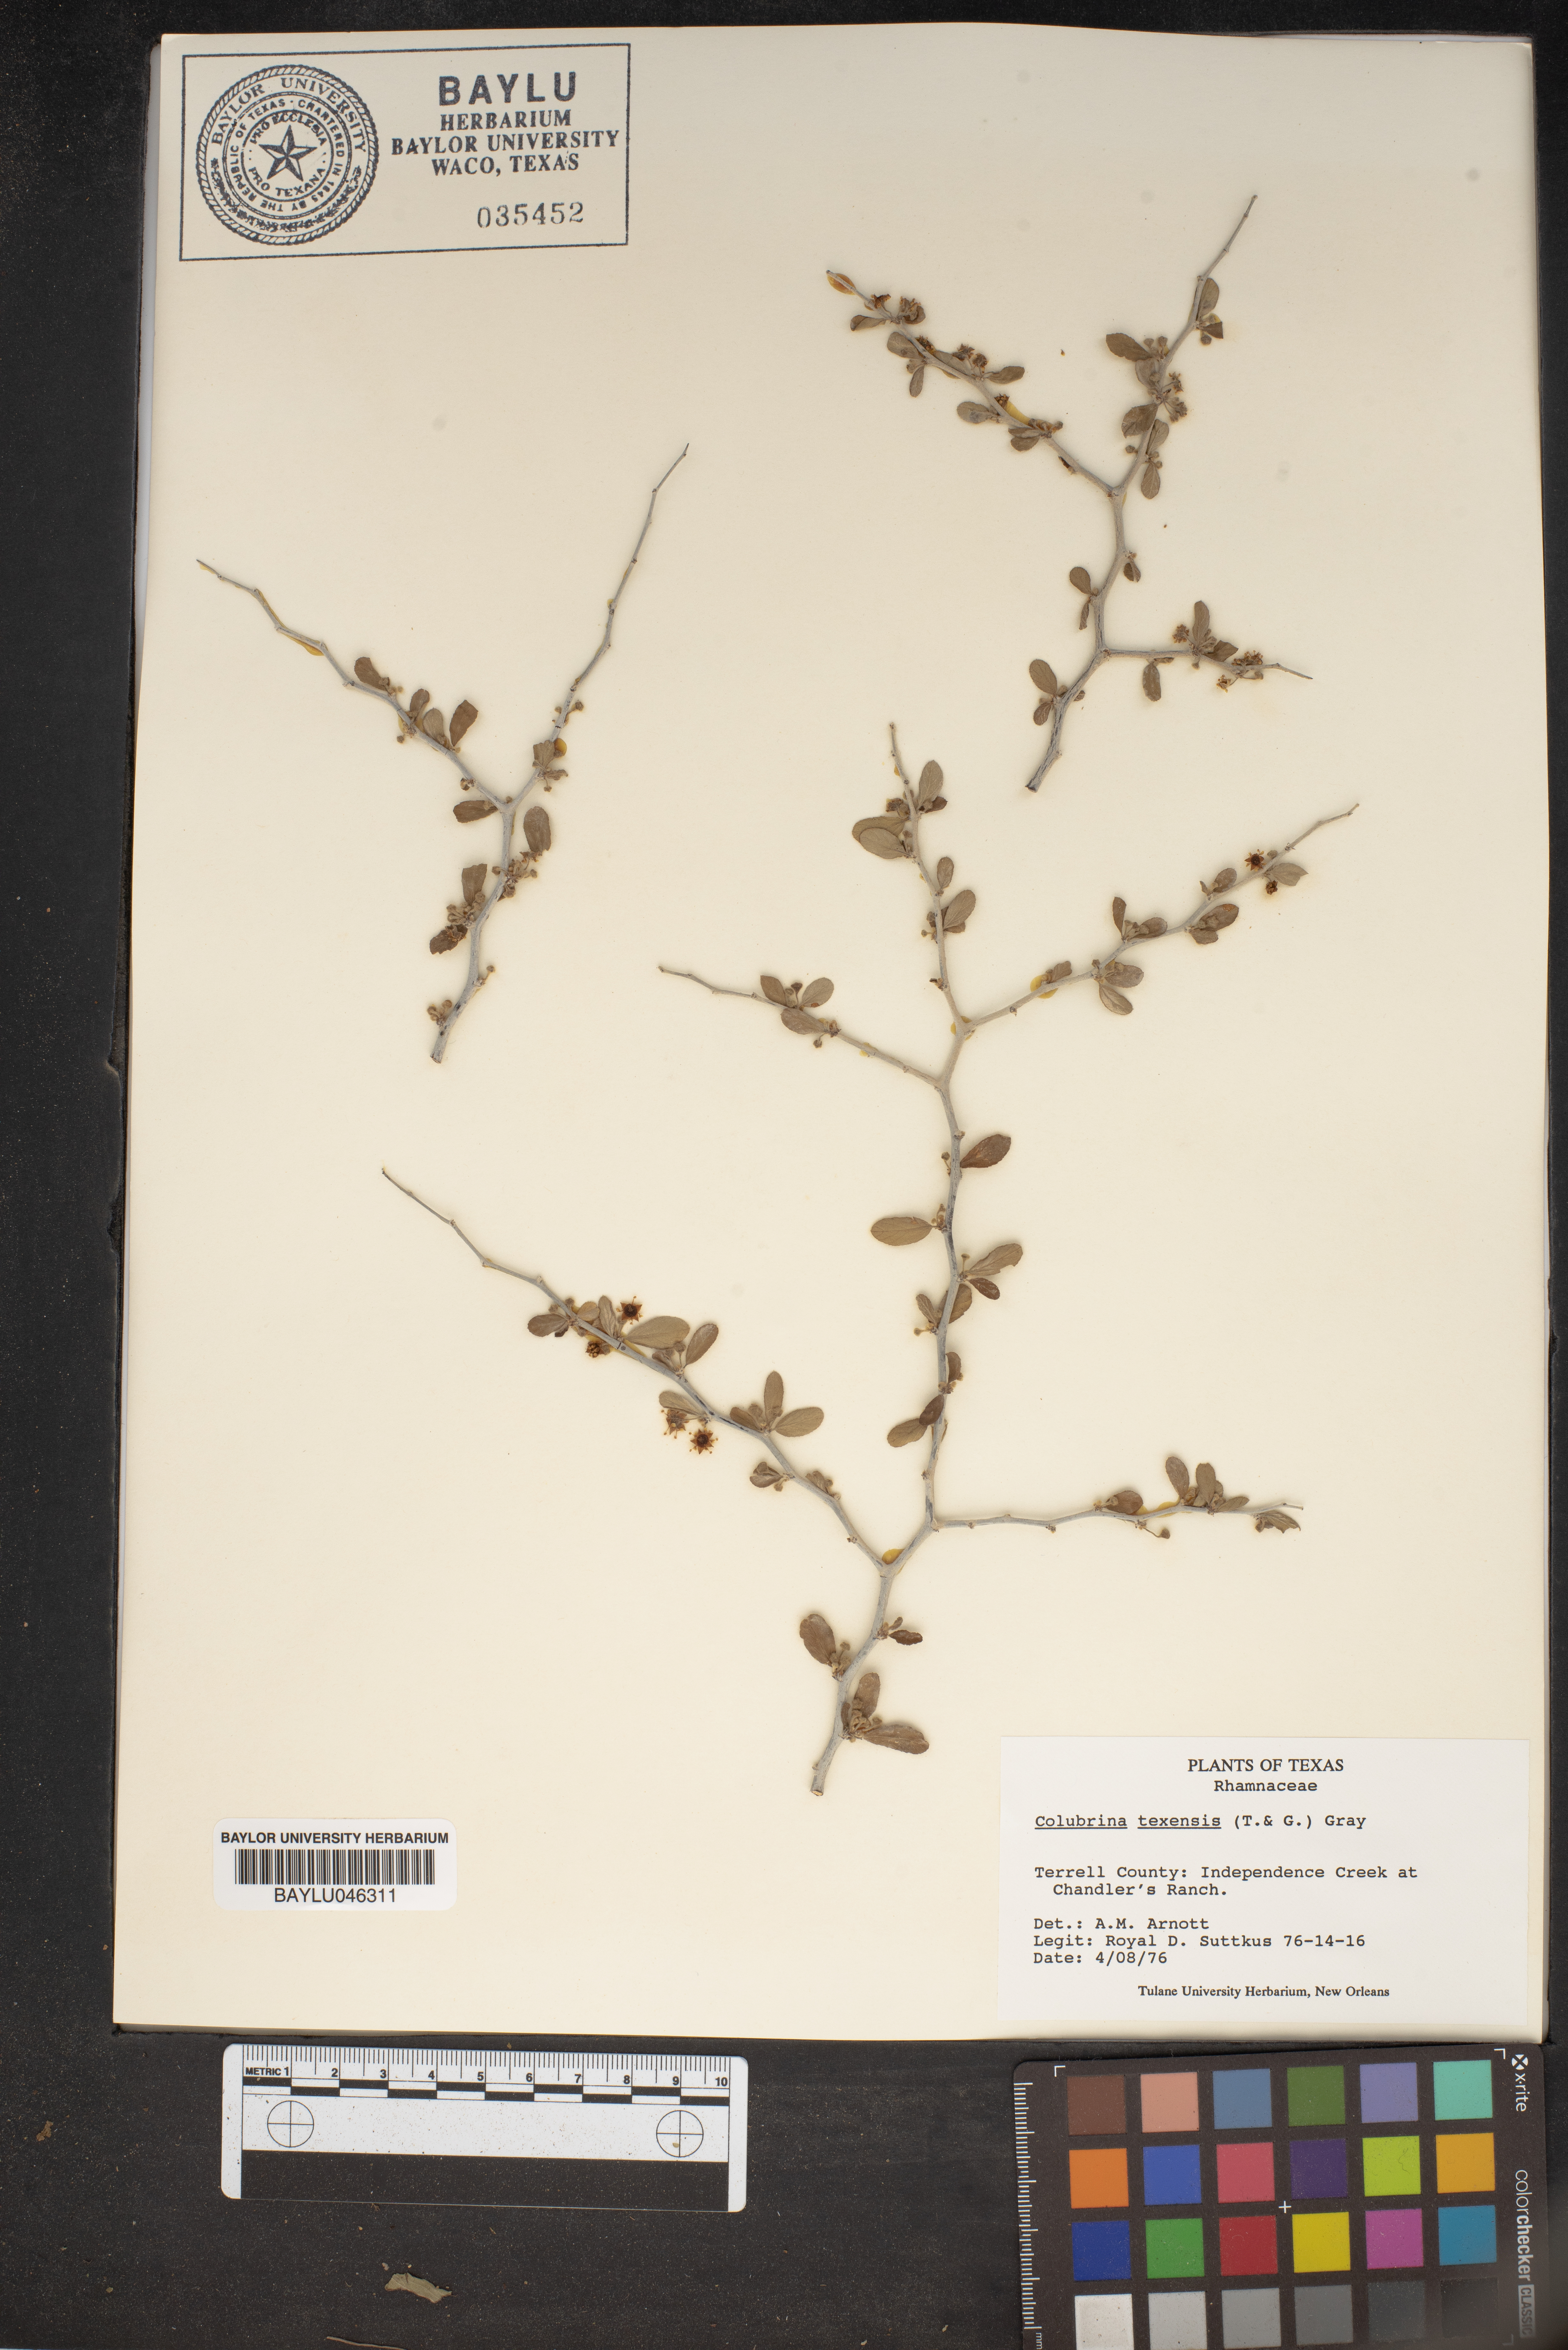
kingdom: Plantae
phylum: Tracheophyta
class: Magnoliopsida
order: Rosales
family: Rhamnaceae
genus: Colubrina
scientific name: Colubrina texensis
